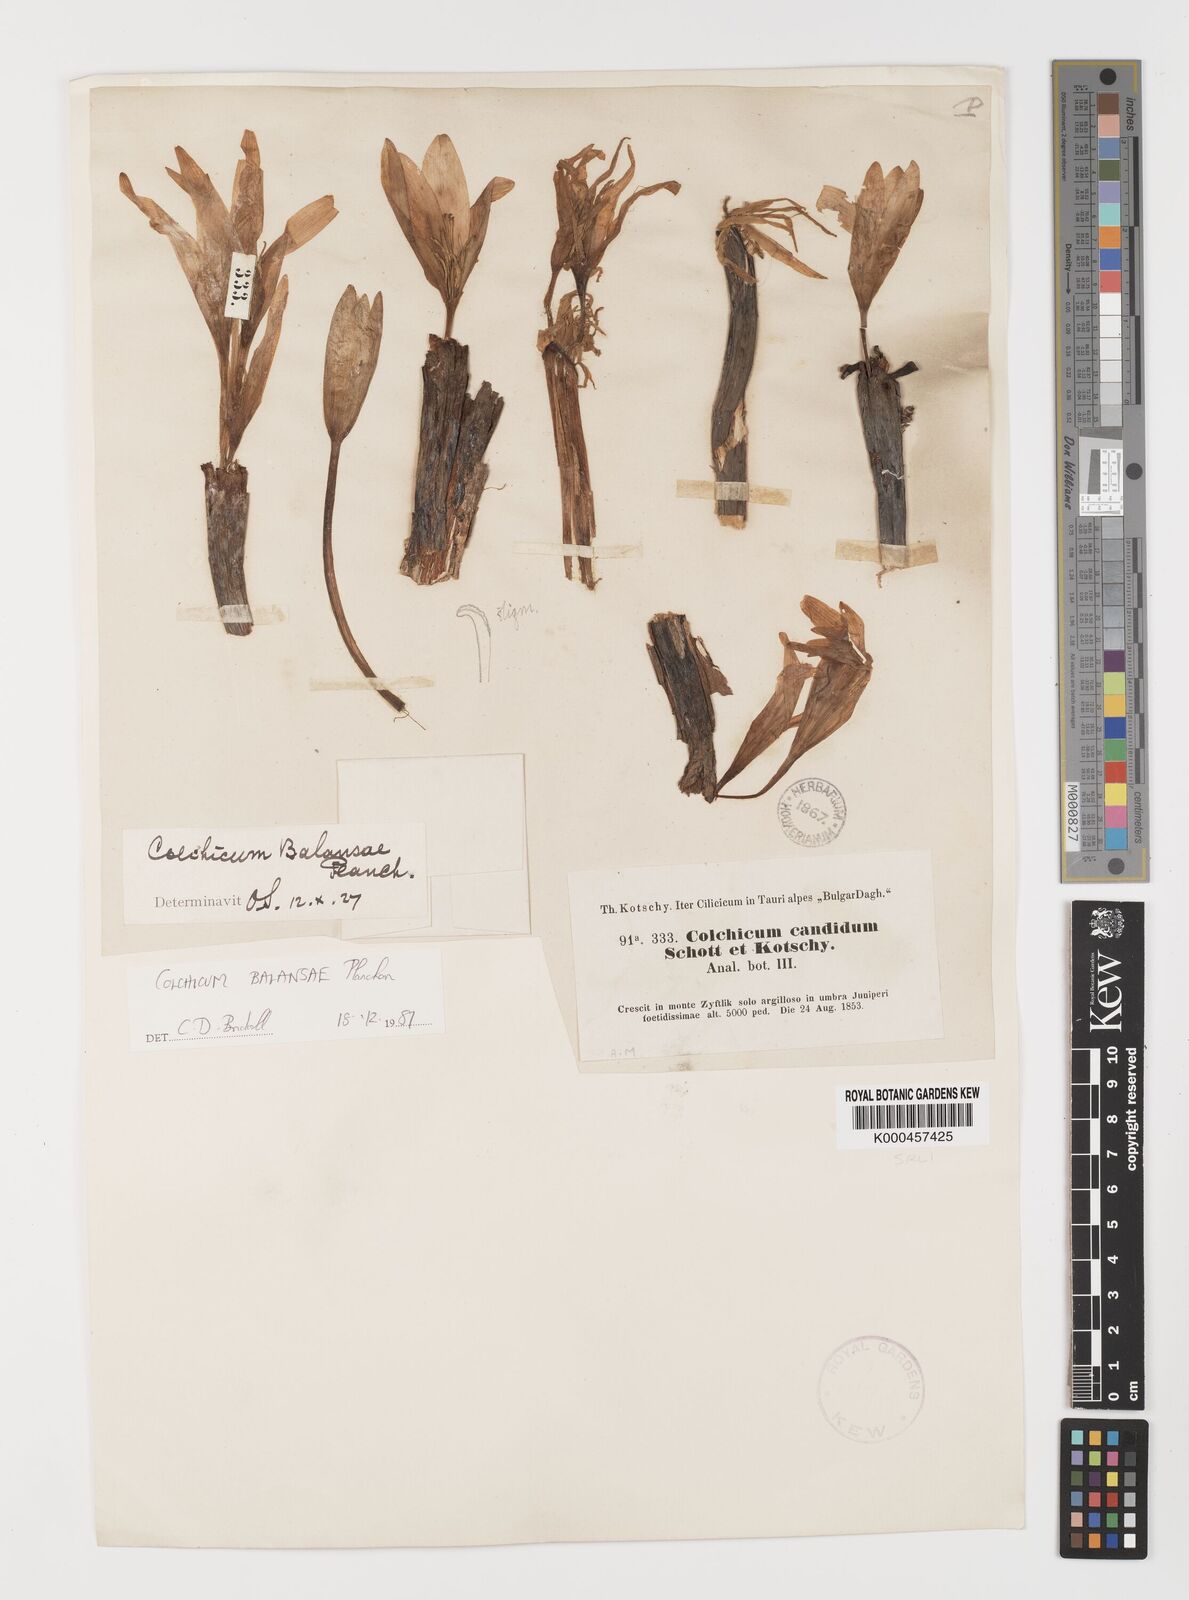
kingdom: Plantae
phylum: Tracheophyta
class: Liliopsida
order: Liliales
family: Colchicaceae
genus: Colchicum
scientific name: Colchicum balansae
